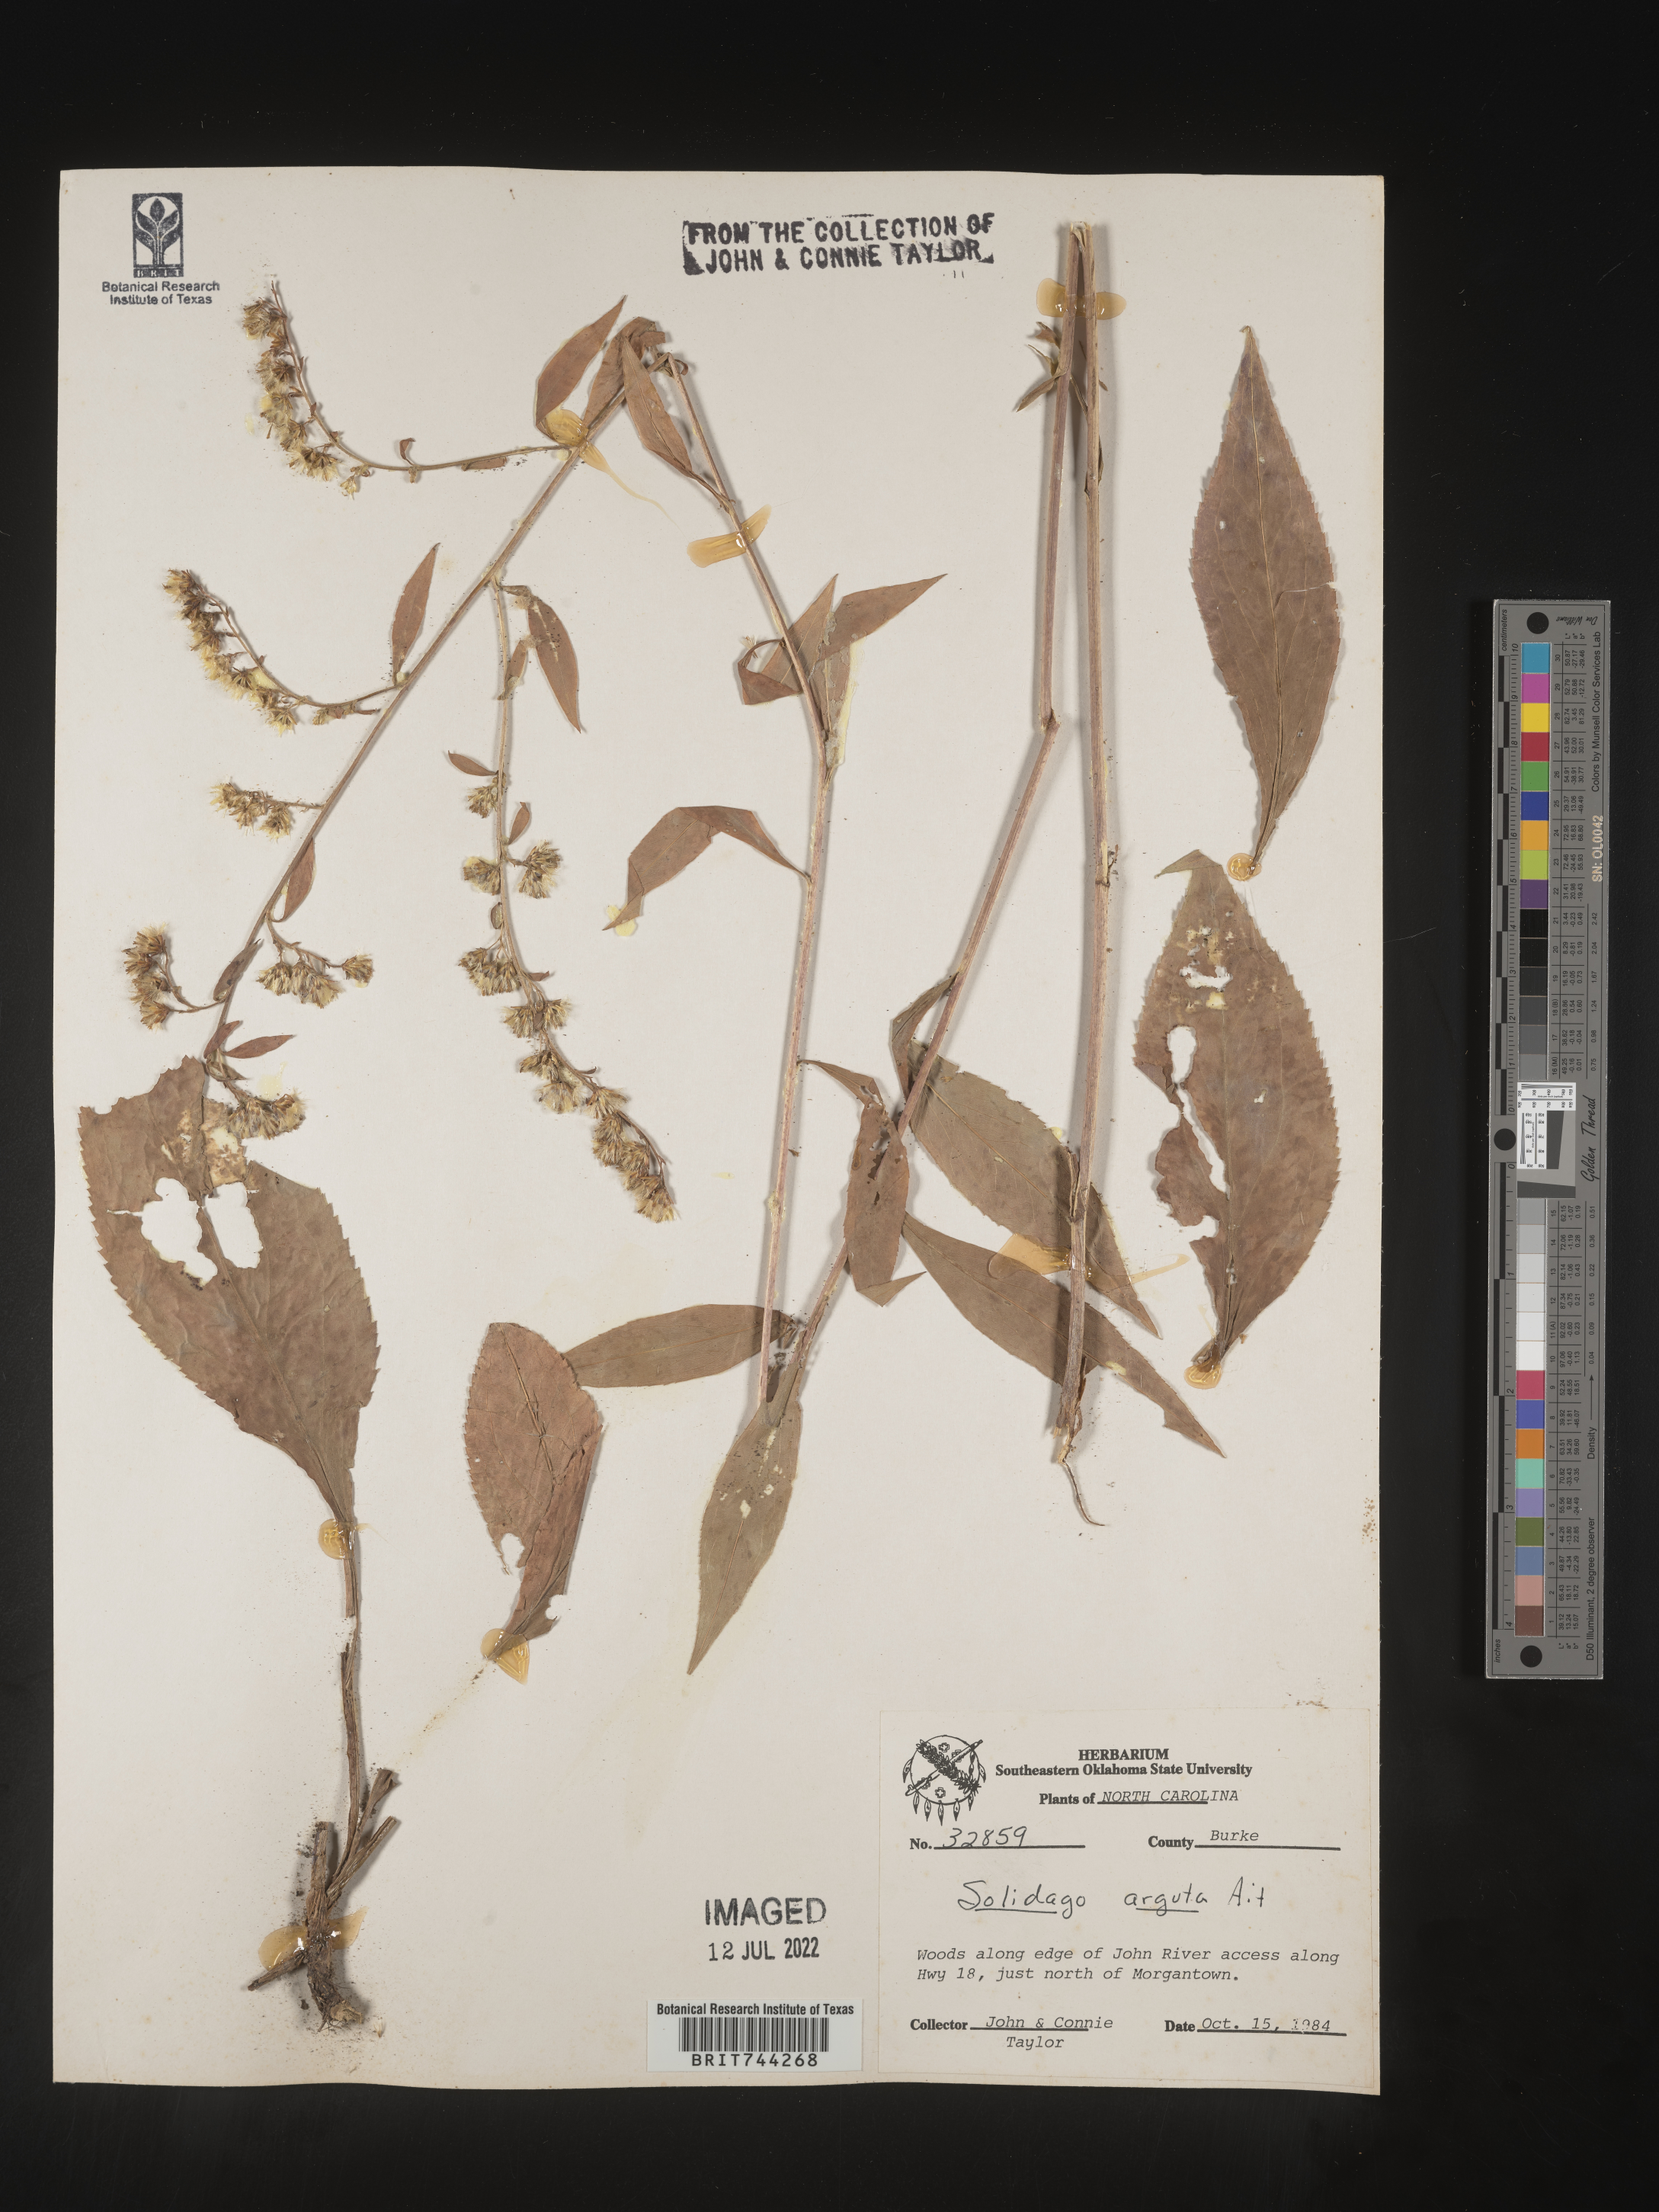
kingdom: Plantae
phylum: Tracheophyta
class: Magnoliopsida
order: Asterales
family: Asteraceae
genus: Solidago
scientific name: Solidago vaseyi
